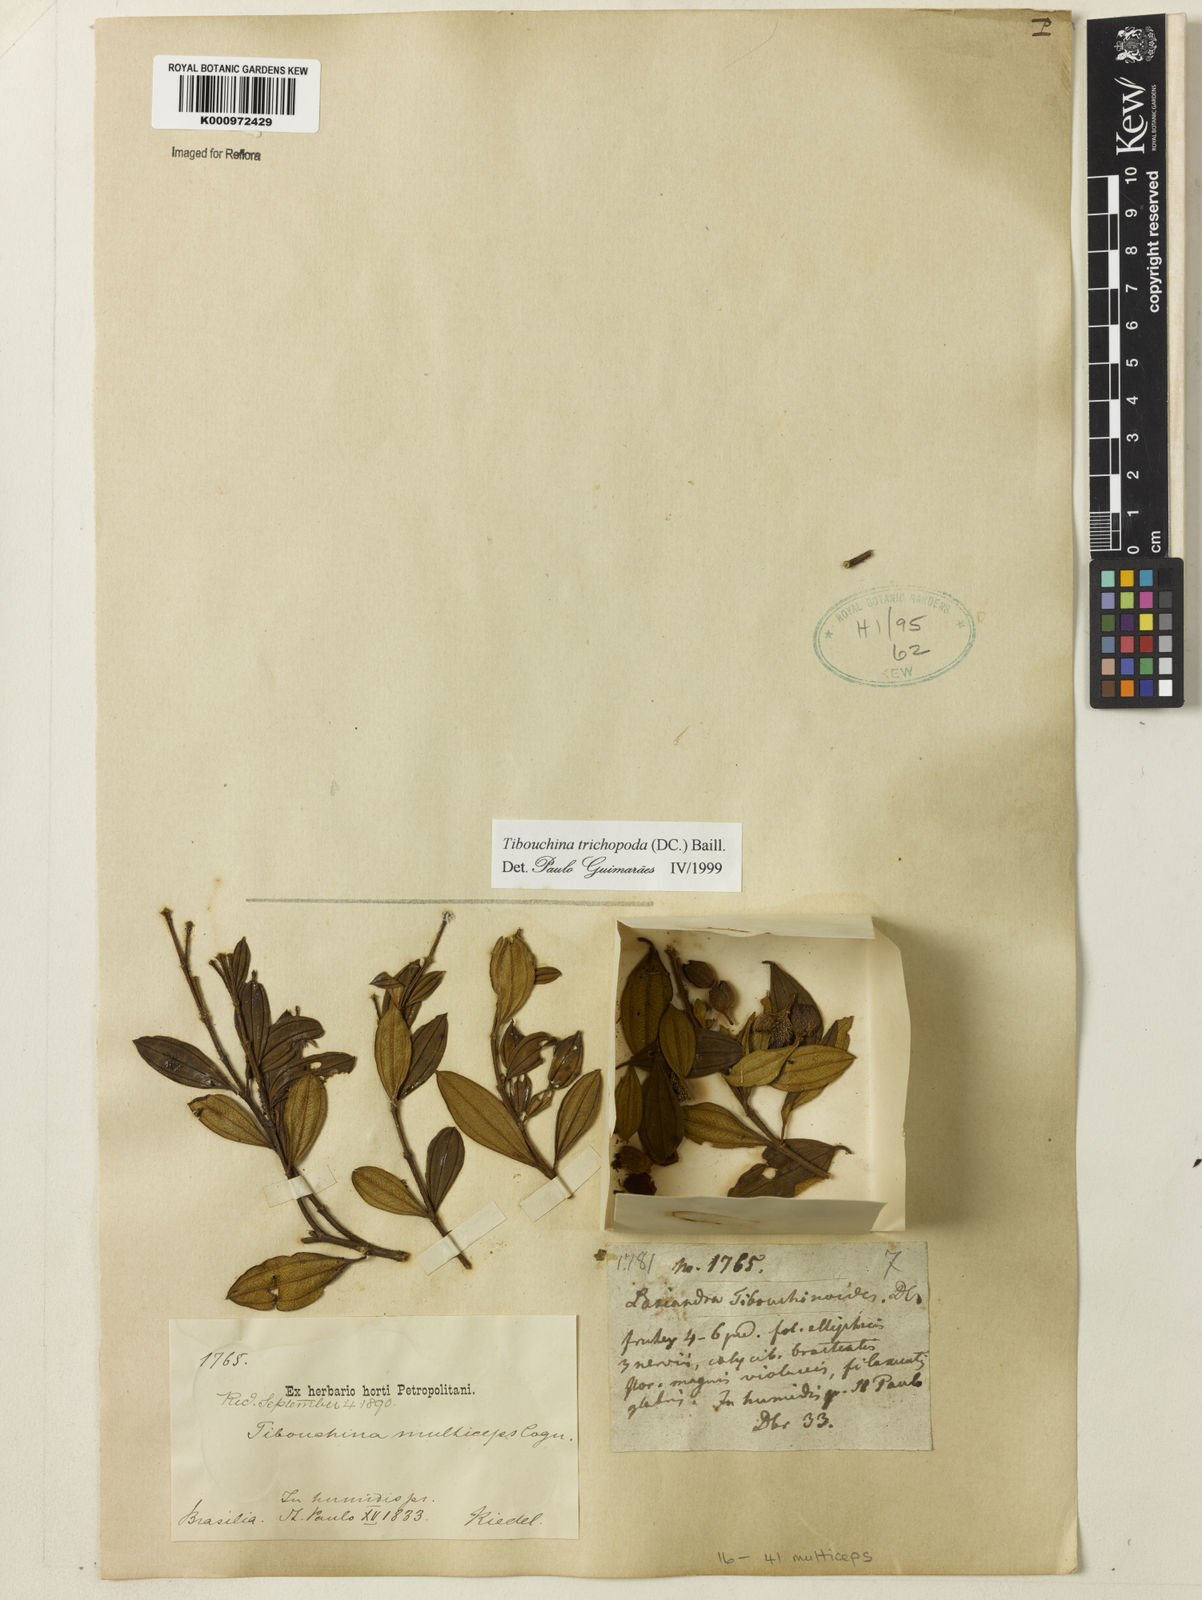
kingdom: Plantae
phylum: Tracheophyta
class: Magnoliopsida
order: Myrtales
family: Melastomataceae
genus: Pleroma
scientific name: Pleroma trichopodum
